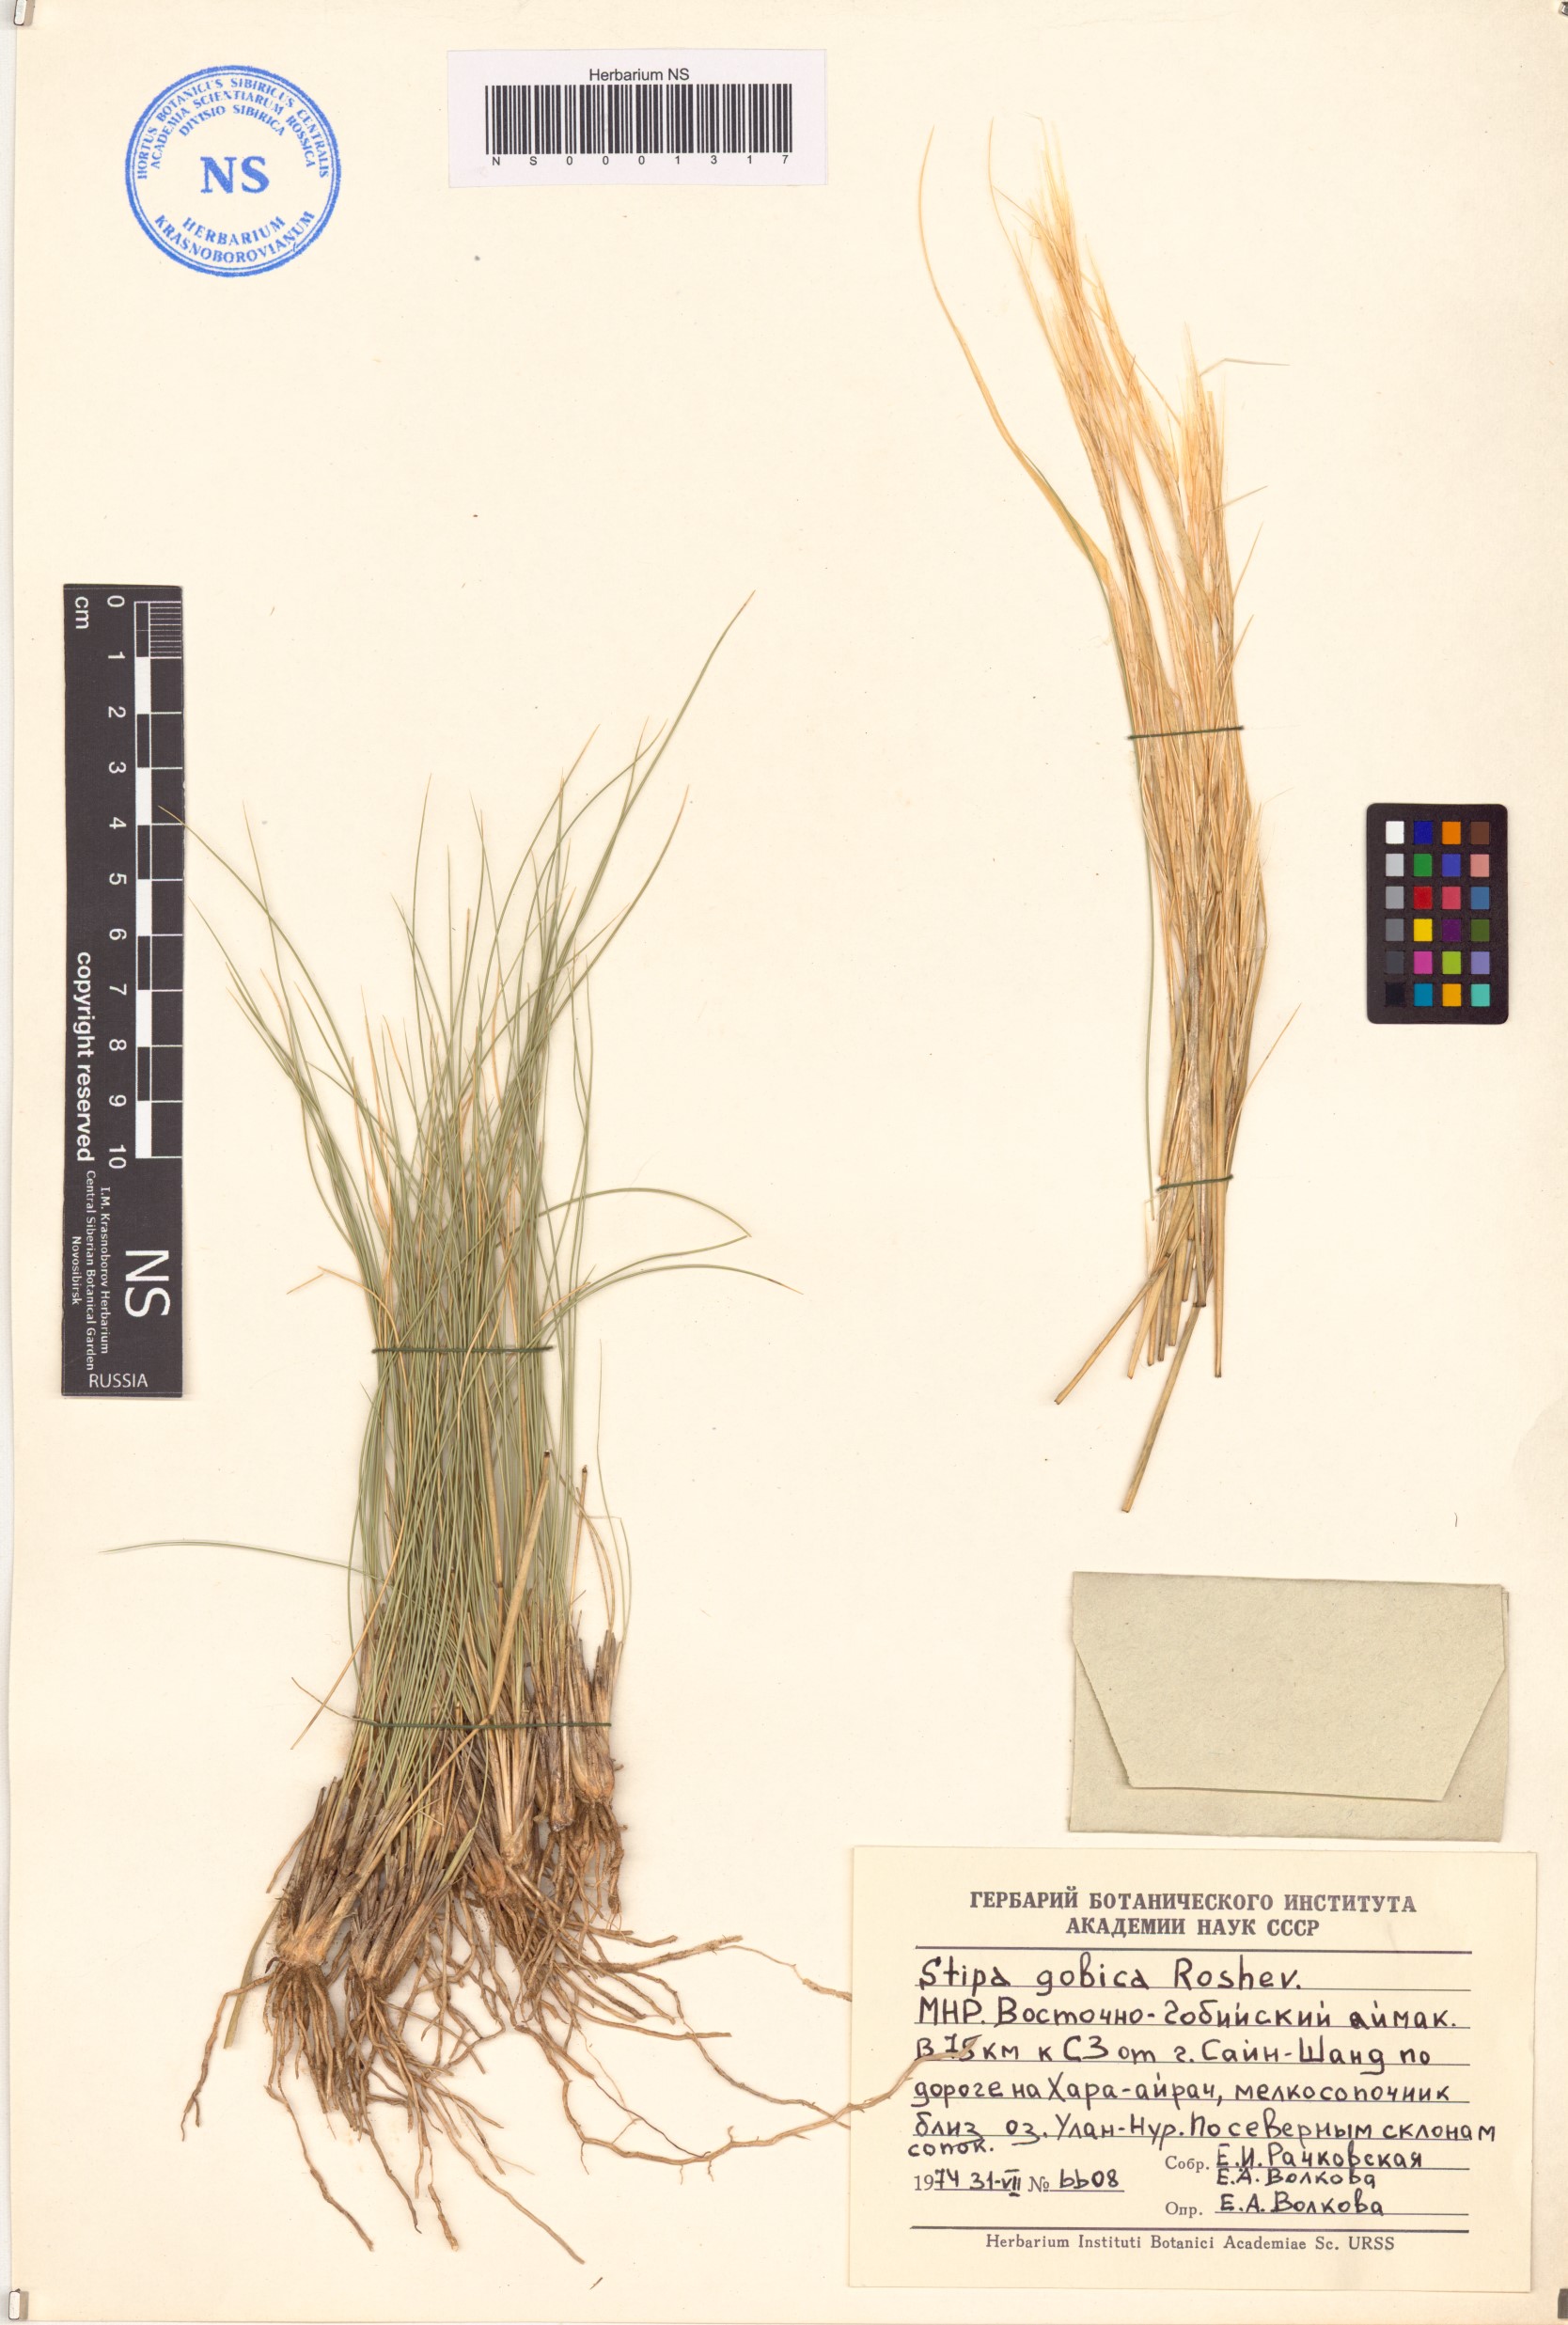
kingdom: Plantae
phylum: Tracheophyta
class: Liliopsida
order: Poales
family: Poaceae
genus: Stipa
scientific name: Stipa tianschanica
